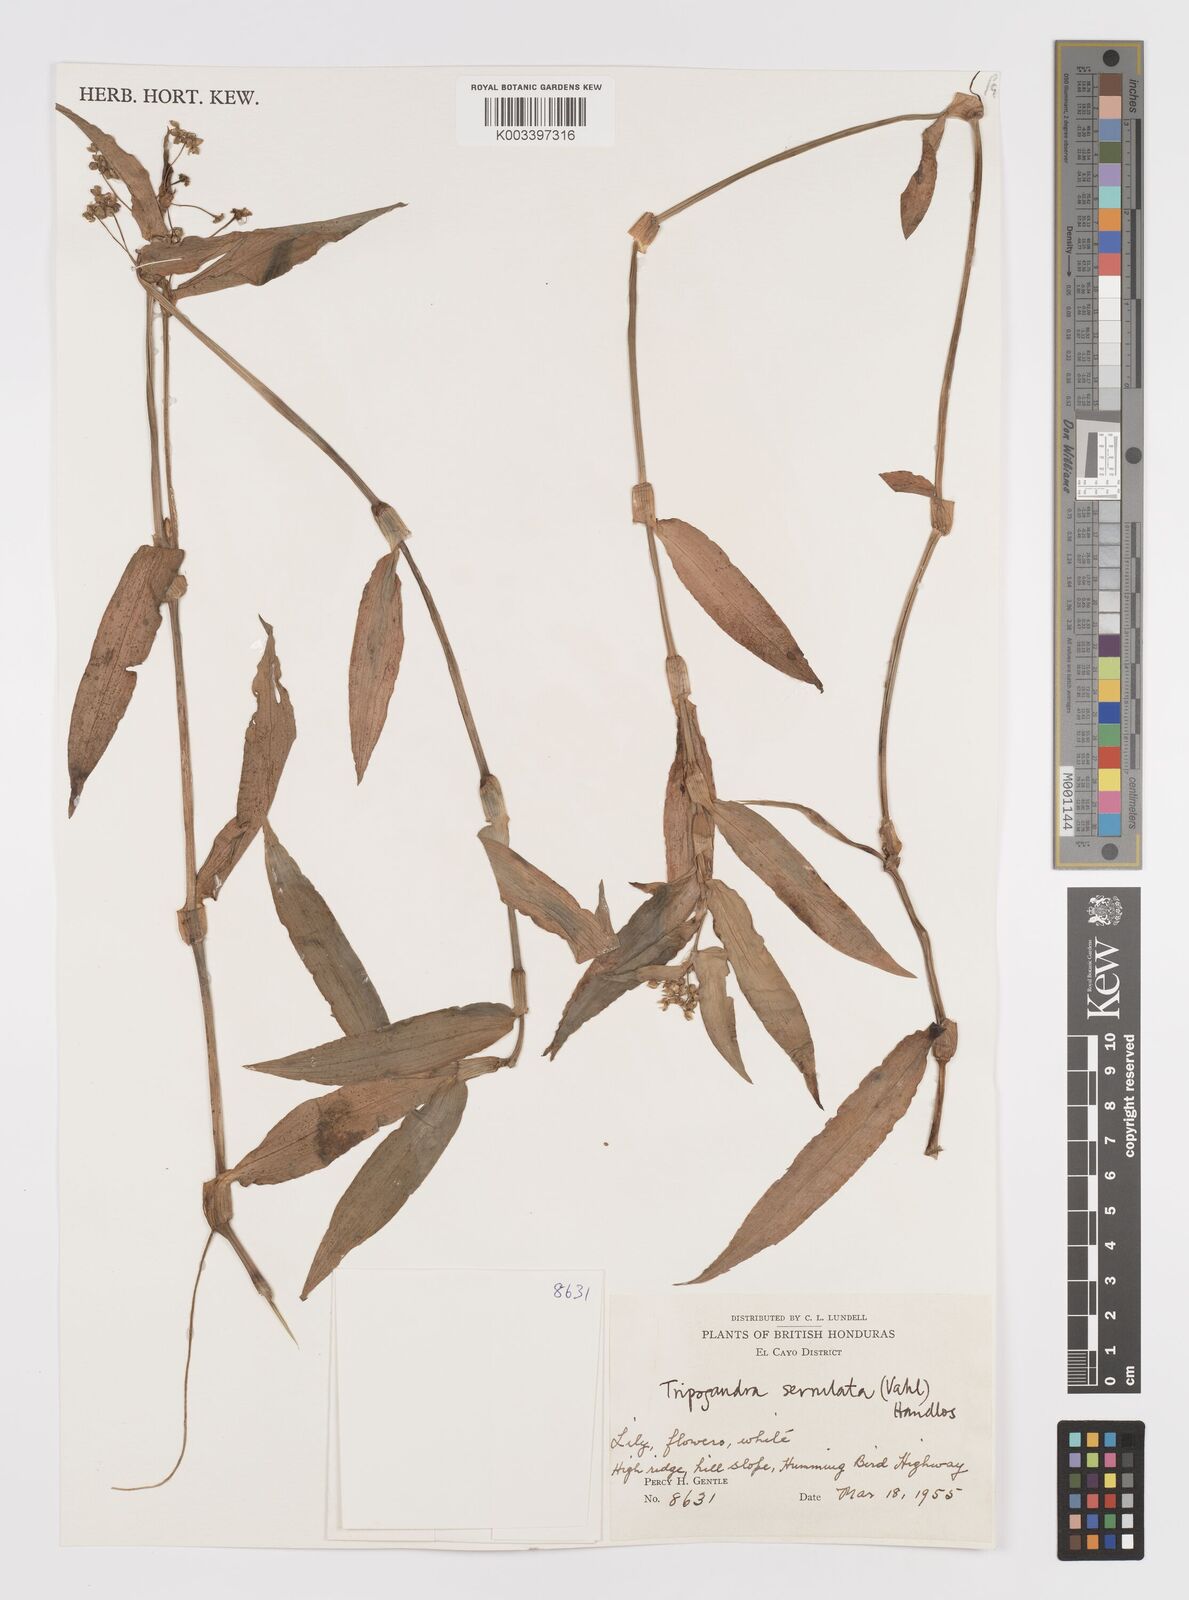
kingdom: Plantae
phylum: Tracheophyta
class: Liliopsida
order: Commelinales
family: Commelinaceae
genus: Callisia
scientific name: Callisia serrulata
